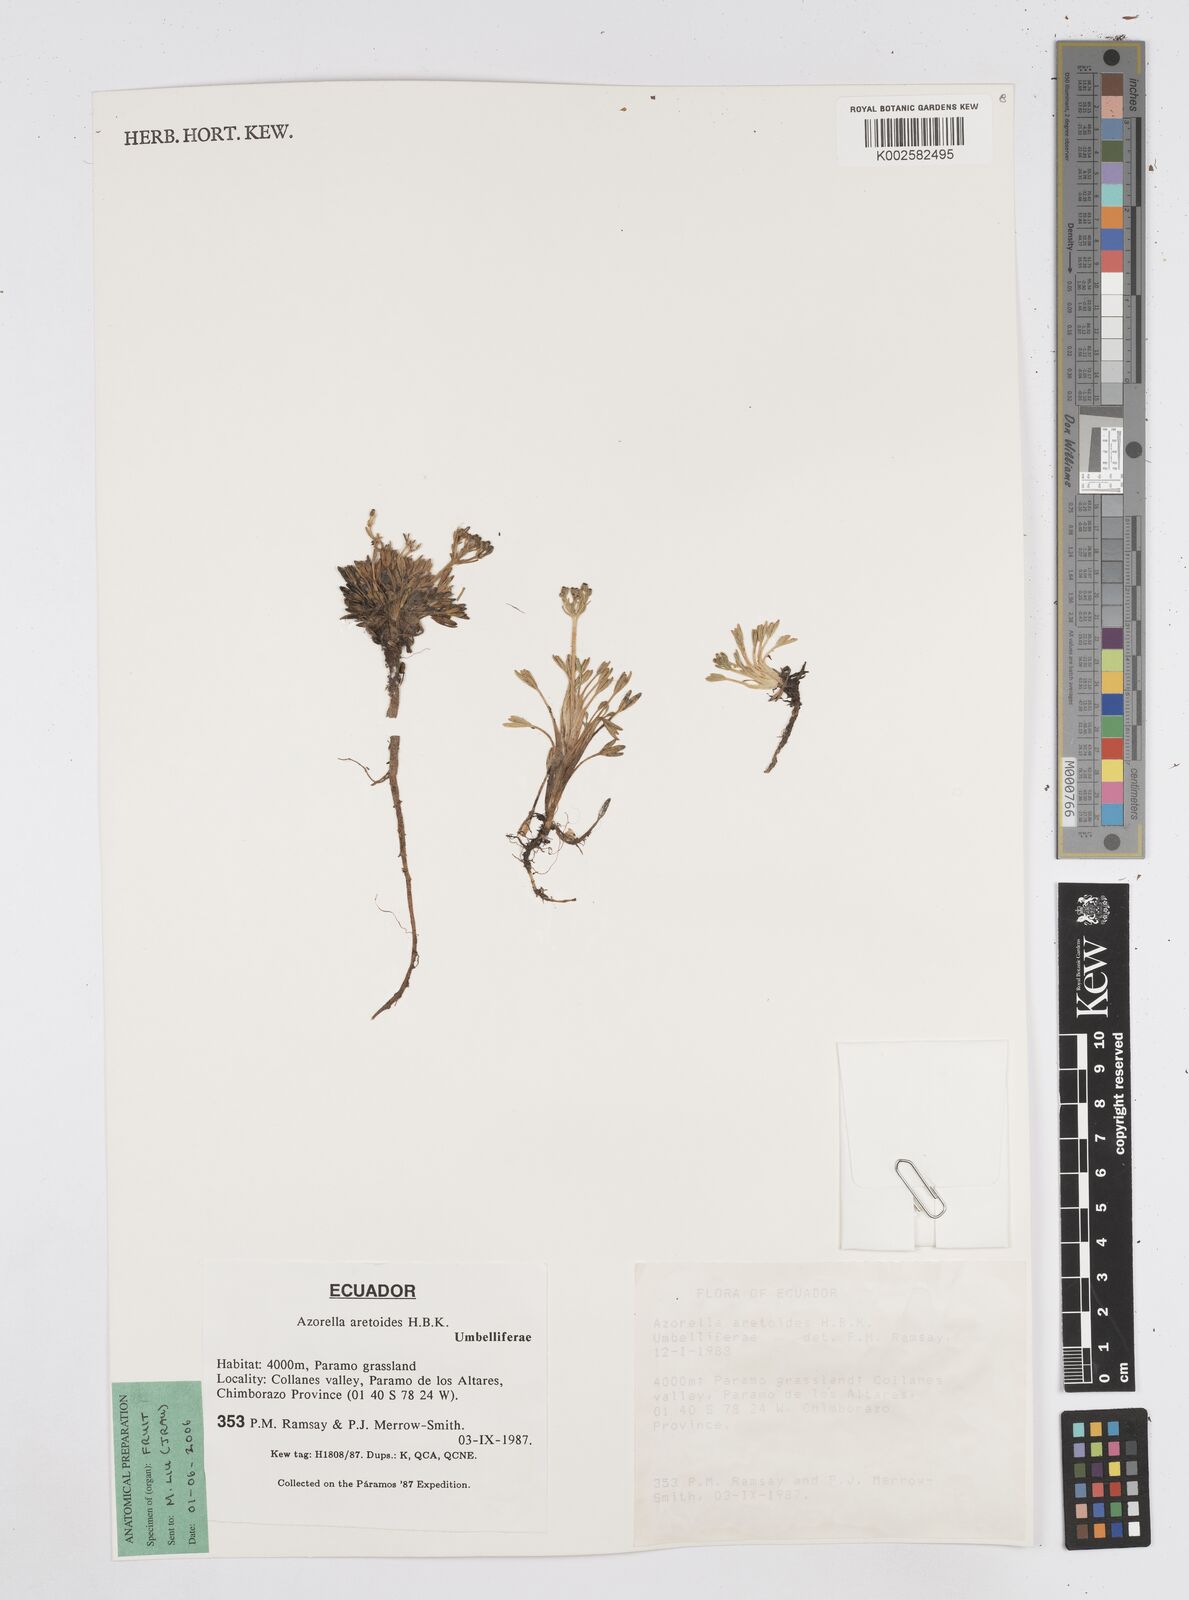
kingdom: Plantae
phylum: Tracheophyta
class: Magnoliopsida
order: Apiales
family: Apiaceae
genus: Azorella
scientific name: Azorella aretioides
